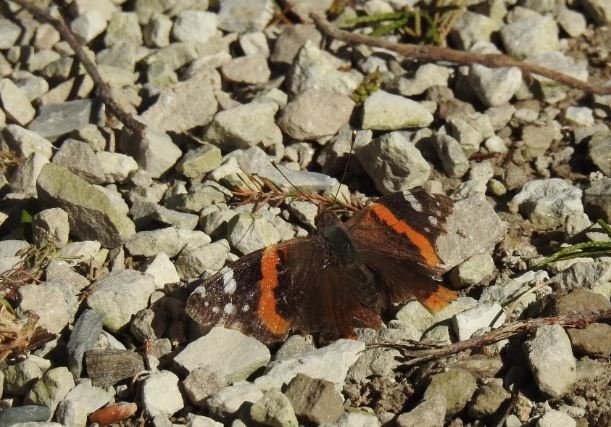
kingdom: Animalia
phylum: Arthropoda
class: Insecta
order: Lepidoptera
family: Nymphalidae
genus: Vanessa
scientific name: Vanessa atalanta
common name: Red Admiral
